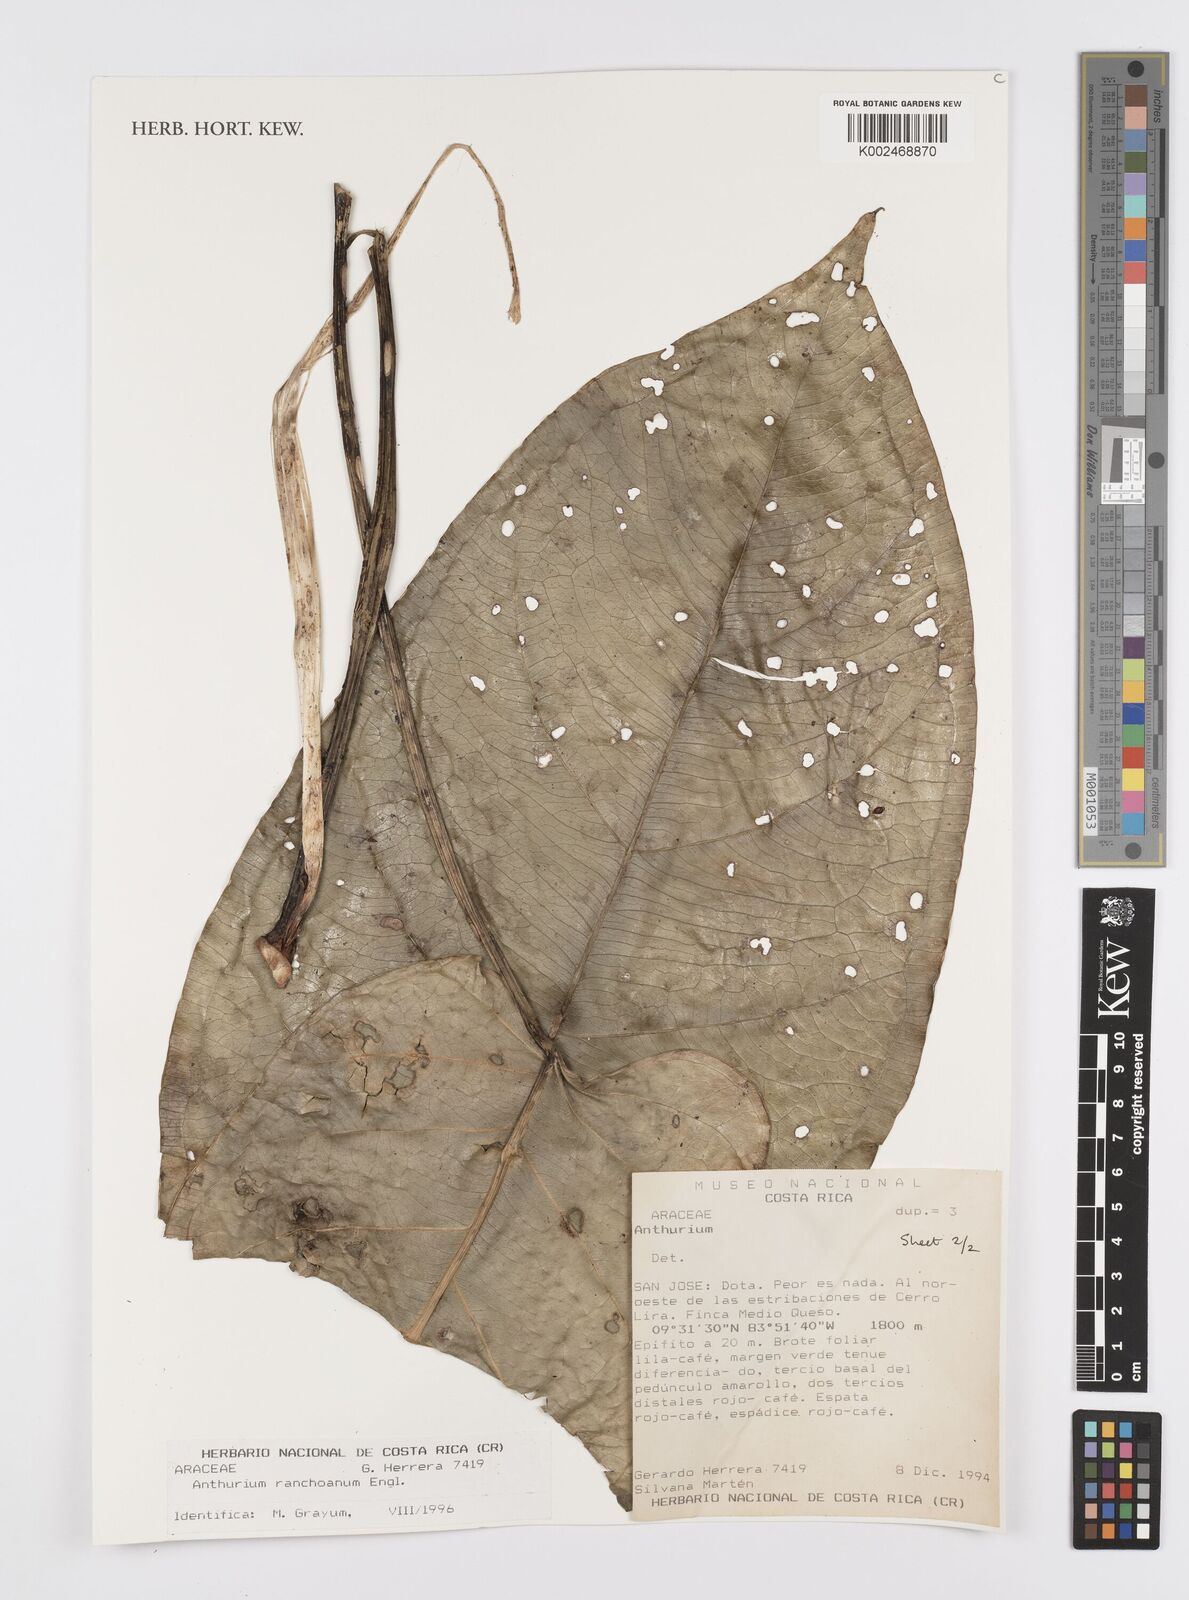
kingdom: Plantae
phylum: Tracheophyta
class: Liliopsida
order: Alismatales
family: Araceae
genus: Anthurium
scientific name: Anthurium ranchoanum
